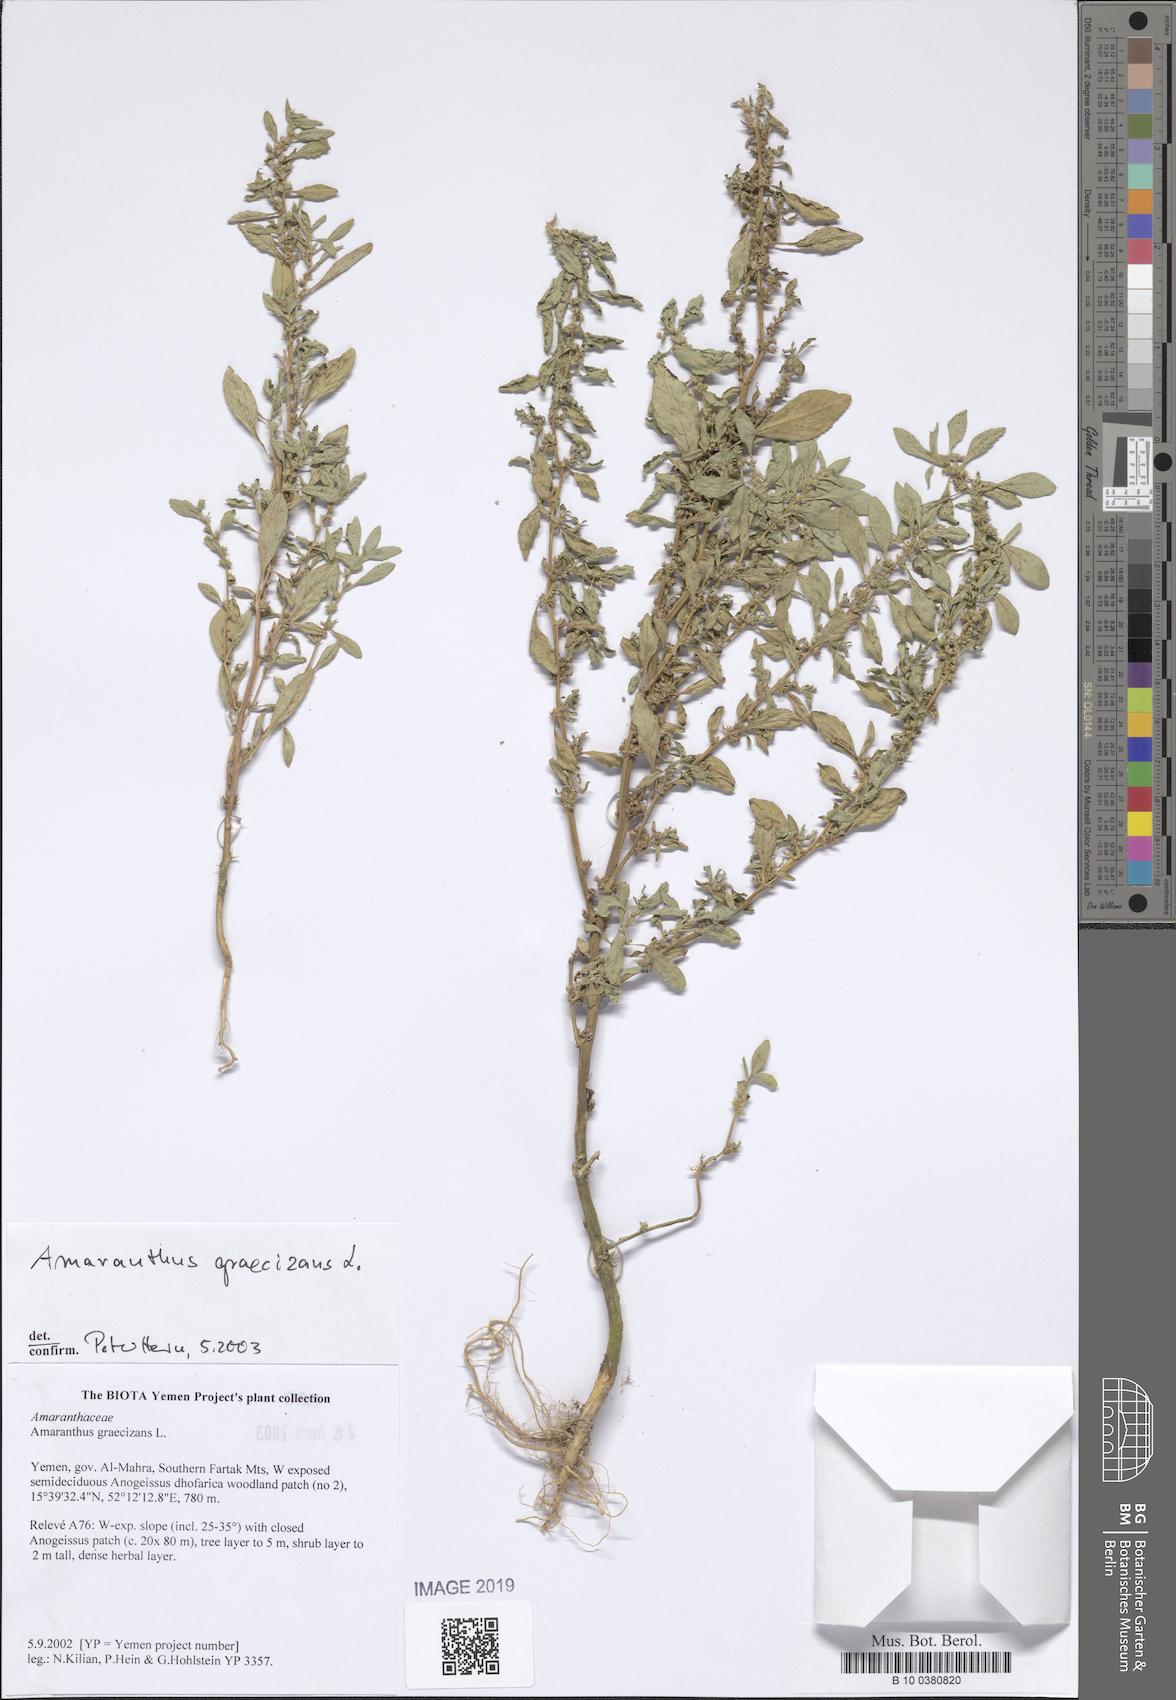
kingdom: Plantae
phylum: Tracheophyta
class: Magnoliopsida
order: Caryophyllales
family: Amaranthaceae
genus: Amaranthus
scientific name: Amaranthus graecizans
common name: Mediterranean amaranth
